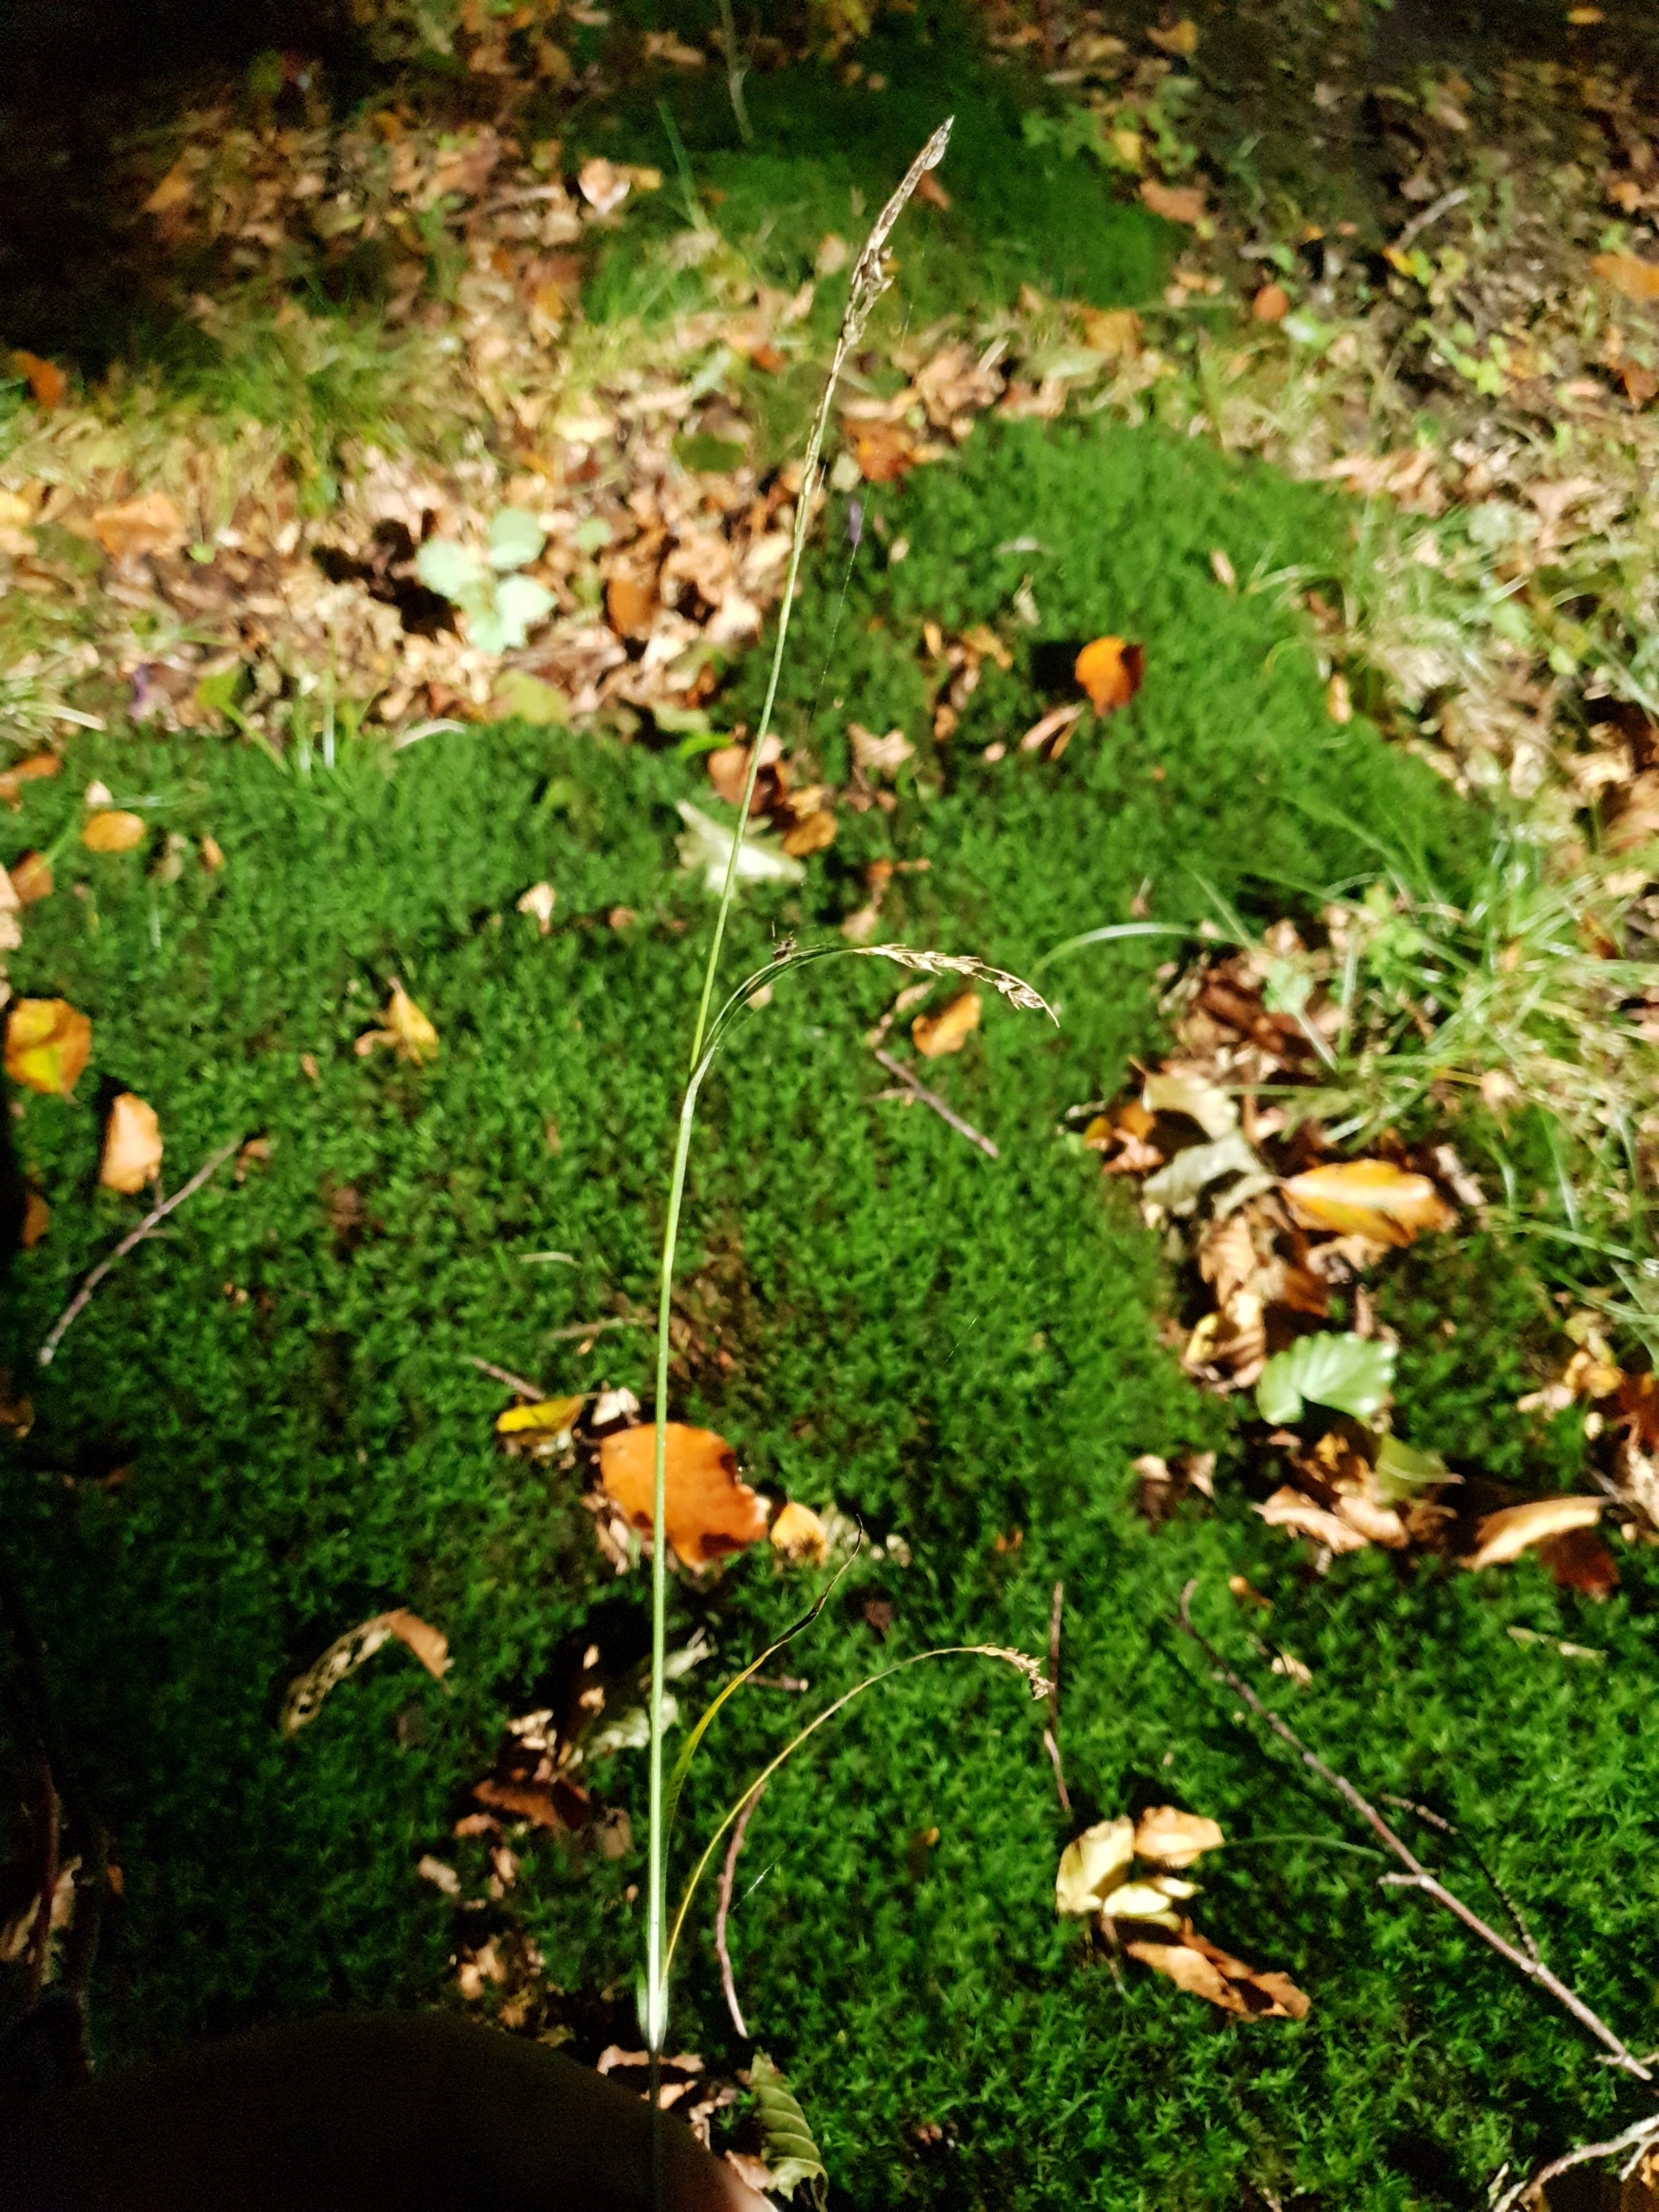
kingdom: Plantae
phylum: Tracheophyta
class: Liliopsida
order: Poales
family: Cyperaceae
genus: Carex
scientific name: Carex sylvatica
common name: Skov-star
